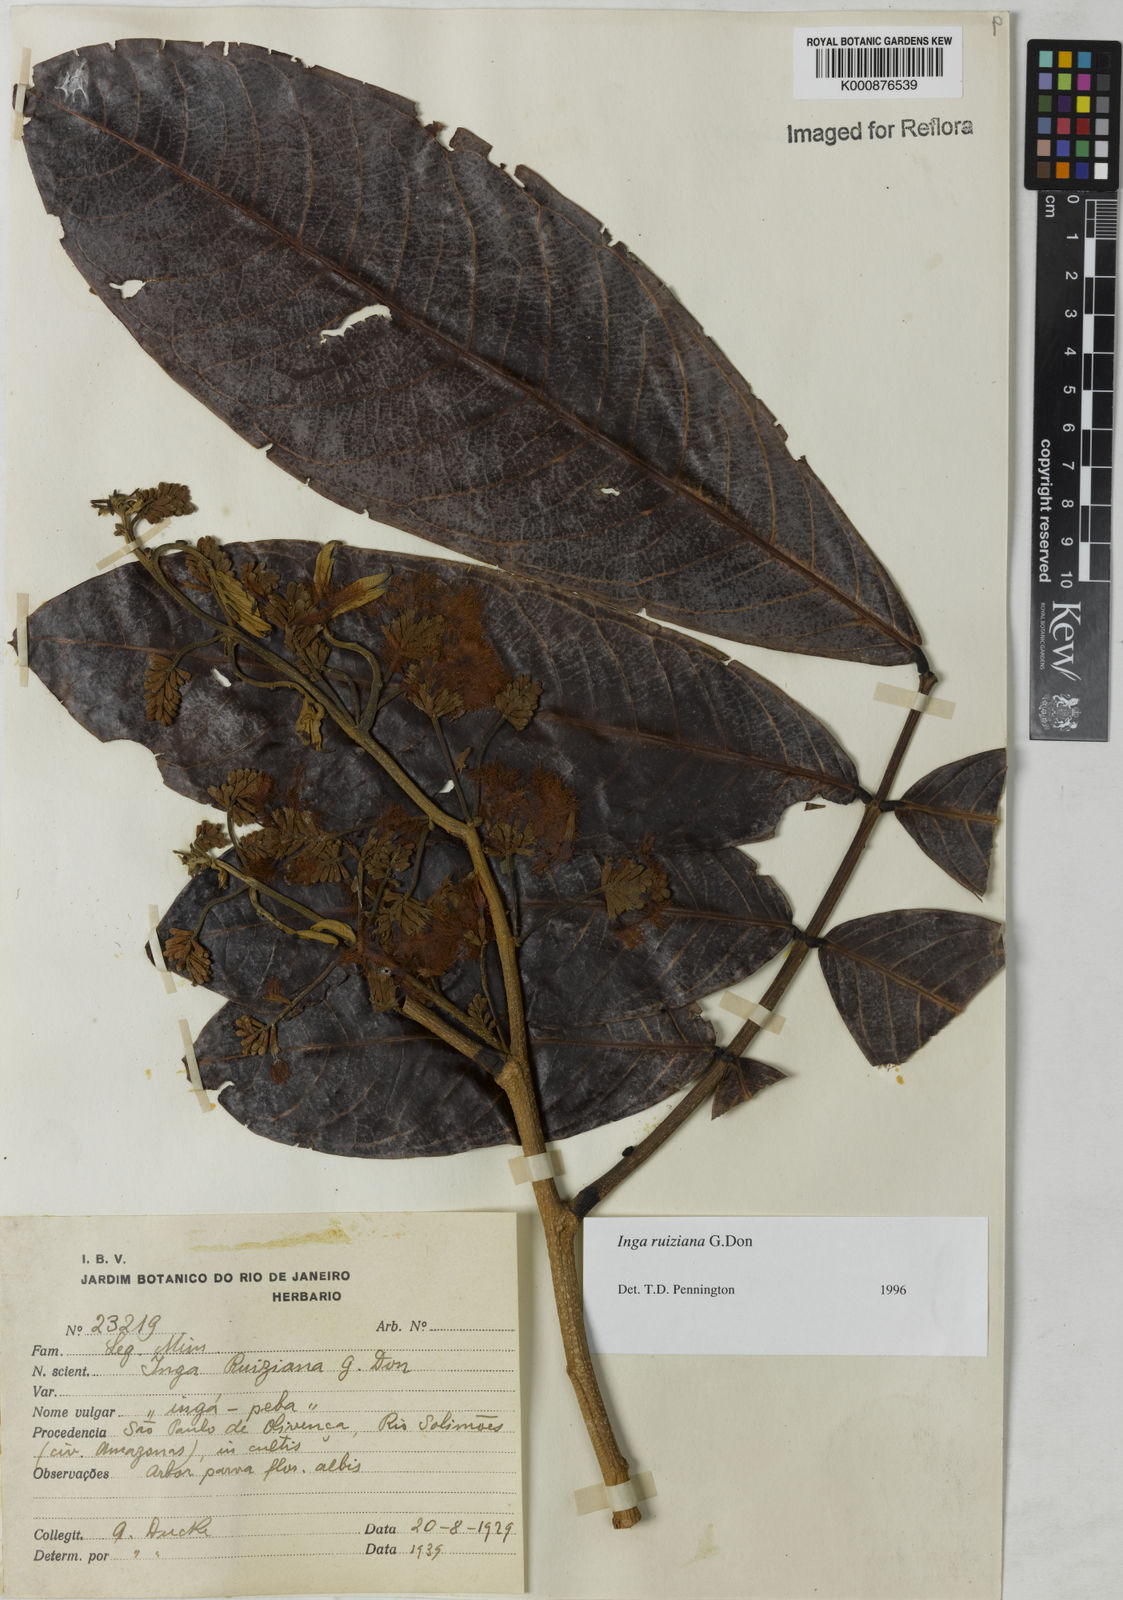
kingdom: Plantae
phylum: Tracheophyta
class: Magnoliopsida
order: Fabales
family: Fabaceae
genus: Inga
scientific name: Inga ruiziana
